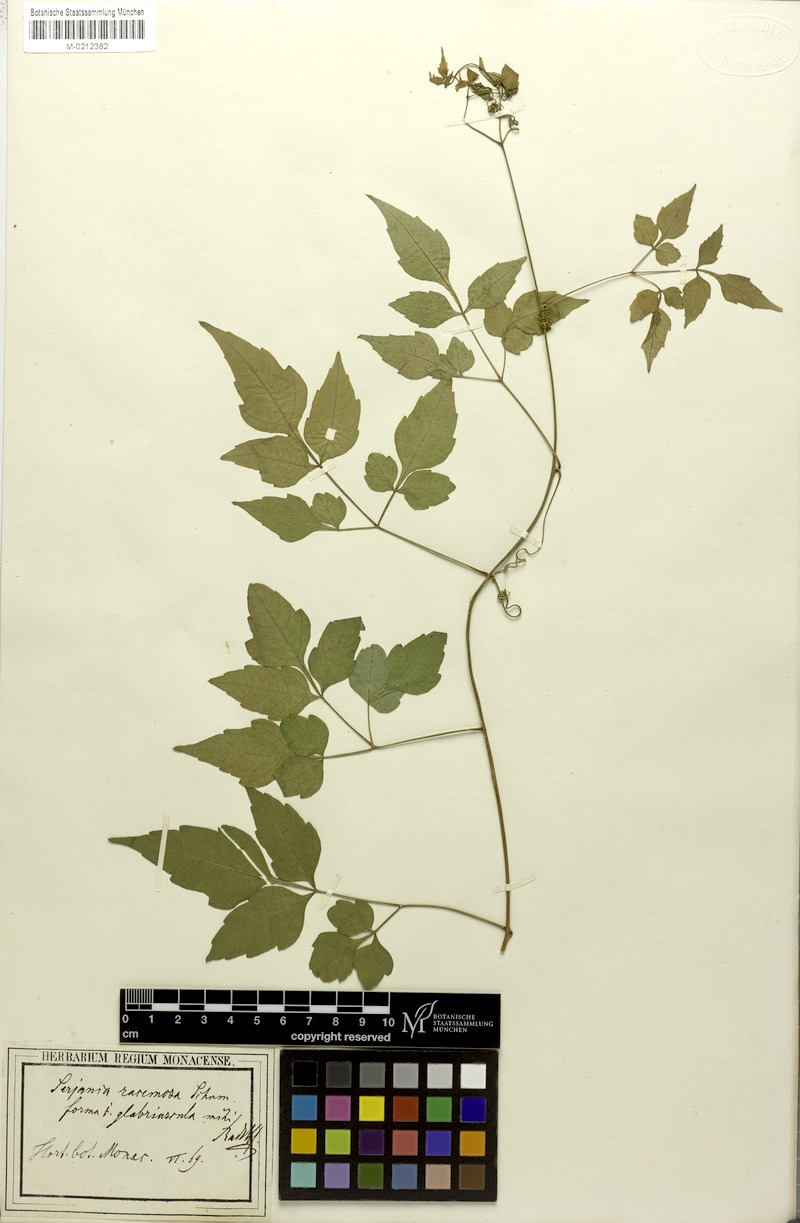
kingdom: Plantae
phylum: Tracheophyta
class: Magnoliopsida
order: Sapindales
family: Sapindaceae
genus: Serjania
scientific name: Serjania racemosa
